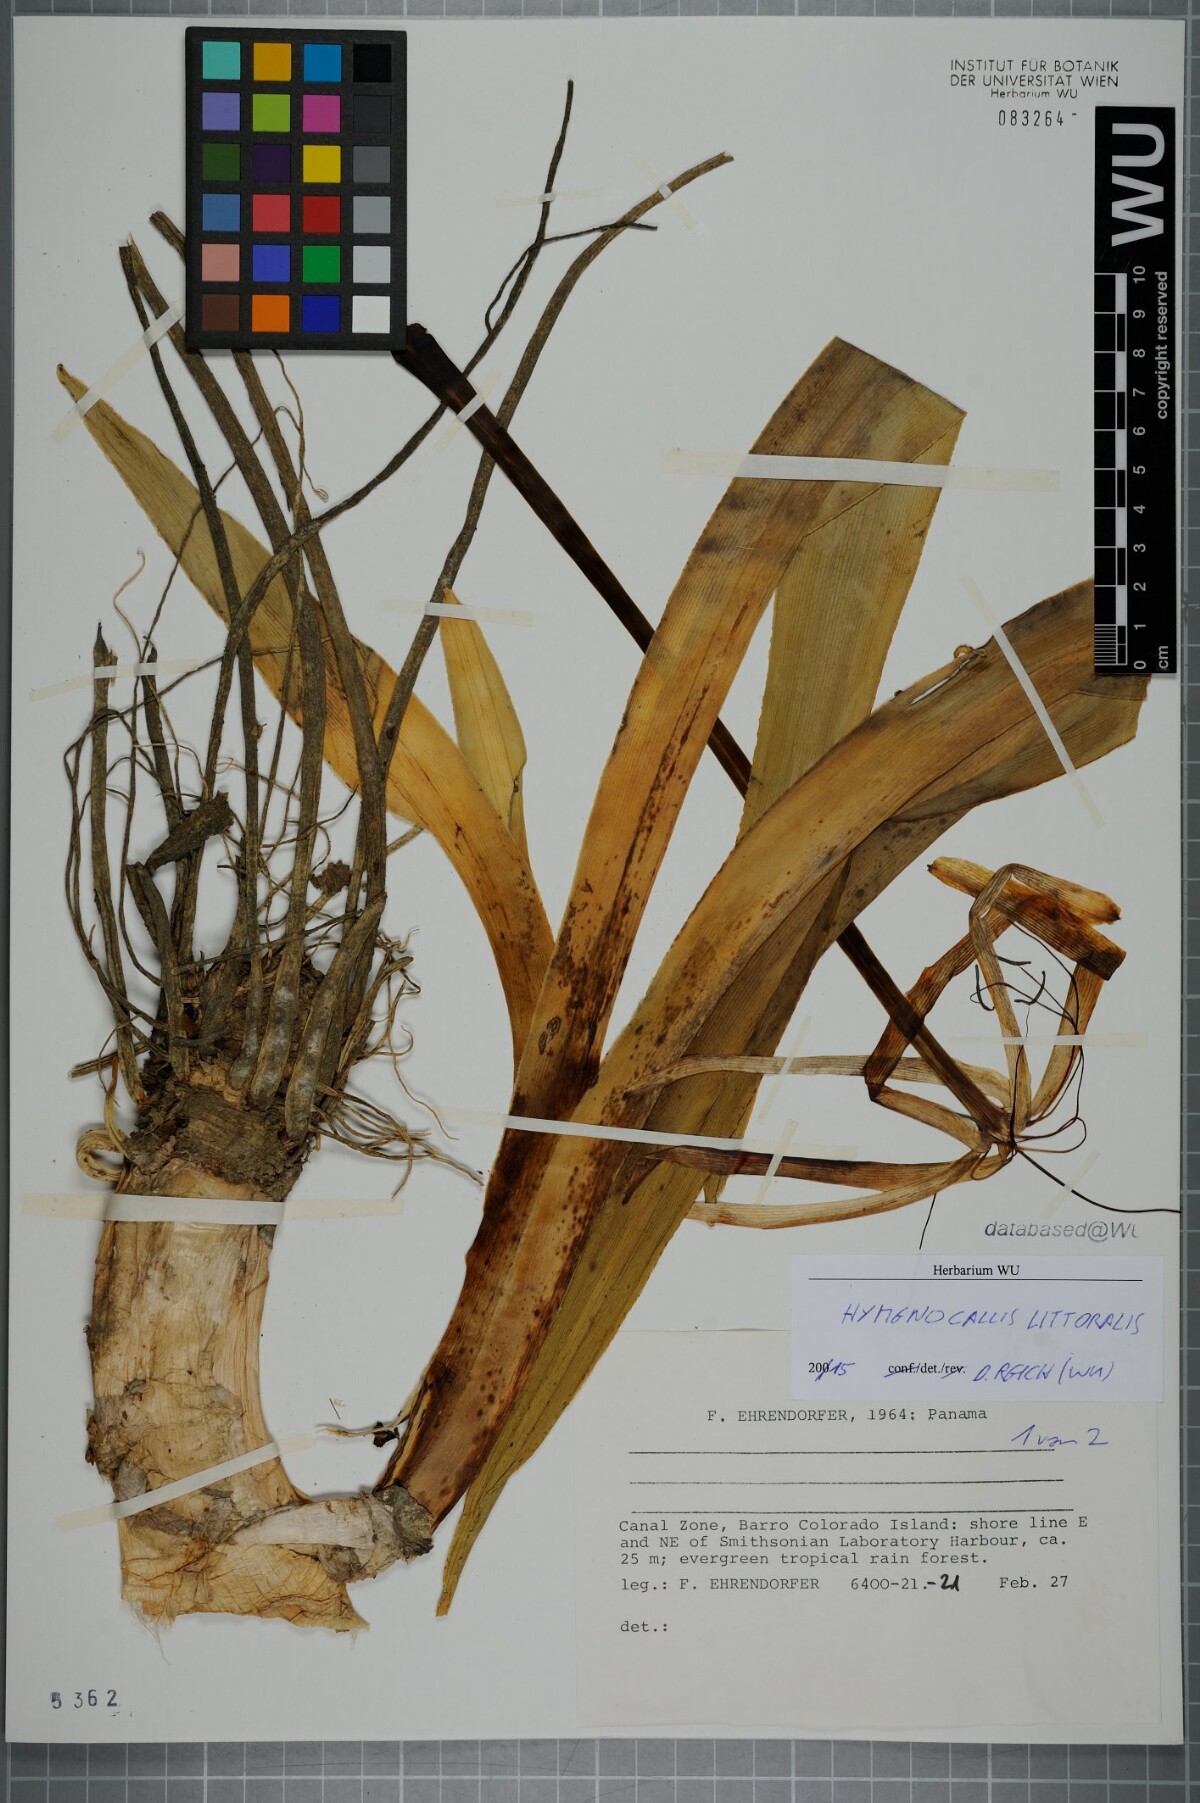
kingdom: Plantae
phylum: Tracheophyta
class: Liliopsida
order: Asparagales
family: Amaryllidaceae
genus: Hymenocallis
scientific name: Hymenocallis littoralis
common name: Beach spiderlily
